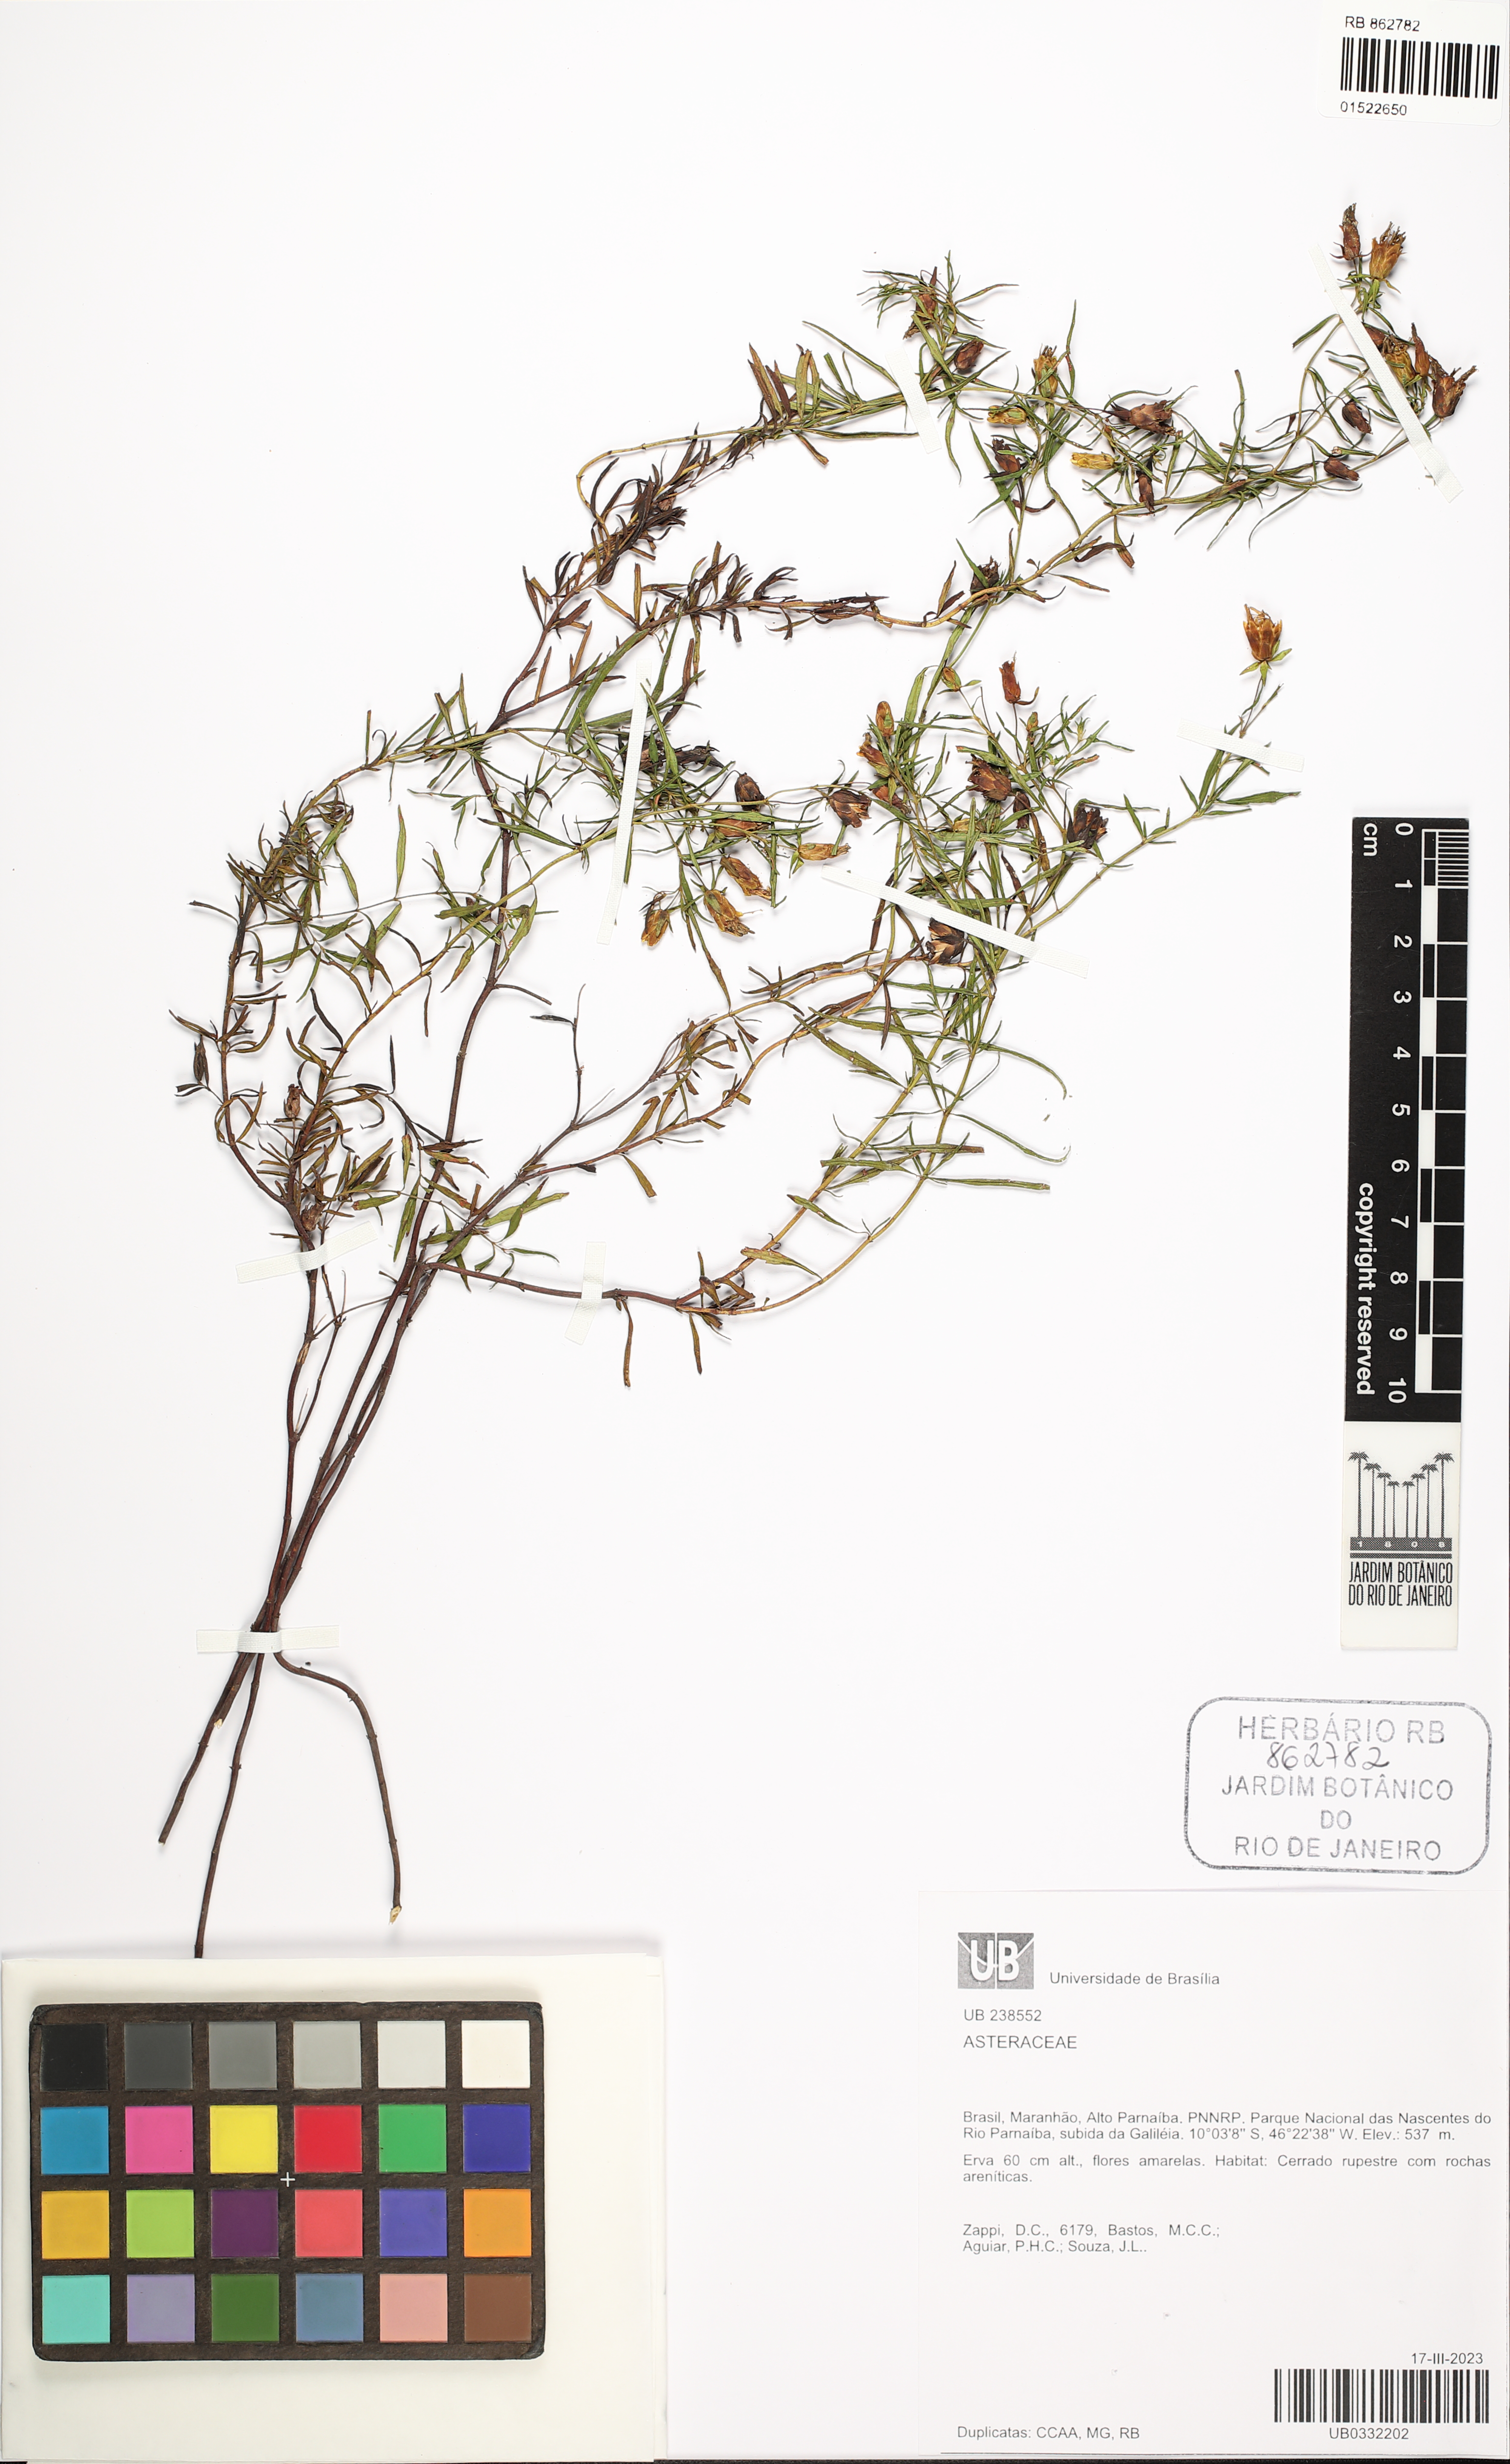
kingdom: Plantae
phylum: Tracheophyta
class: Magnoliopsida
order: Asterales
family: Asteraceae
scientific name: Asteraceae
